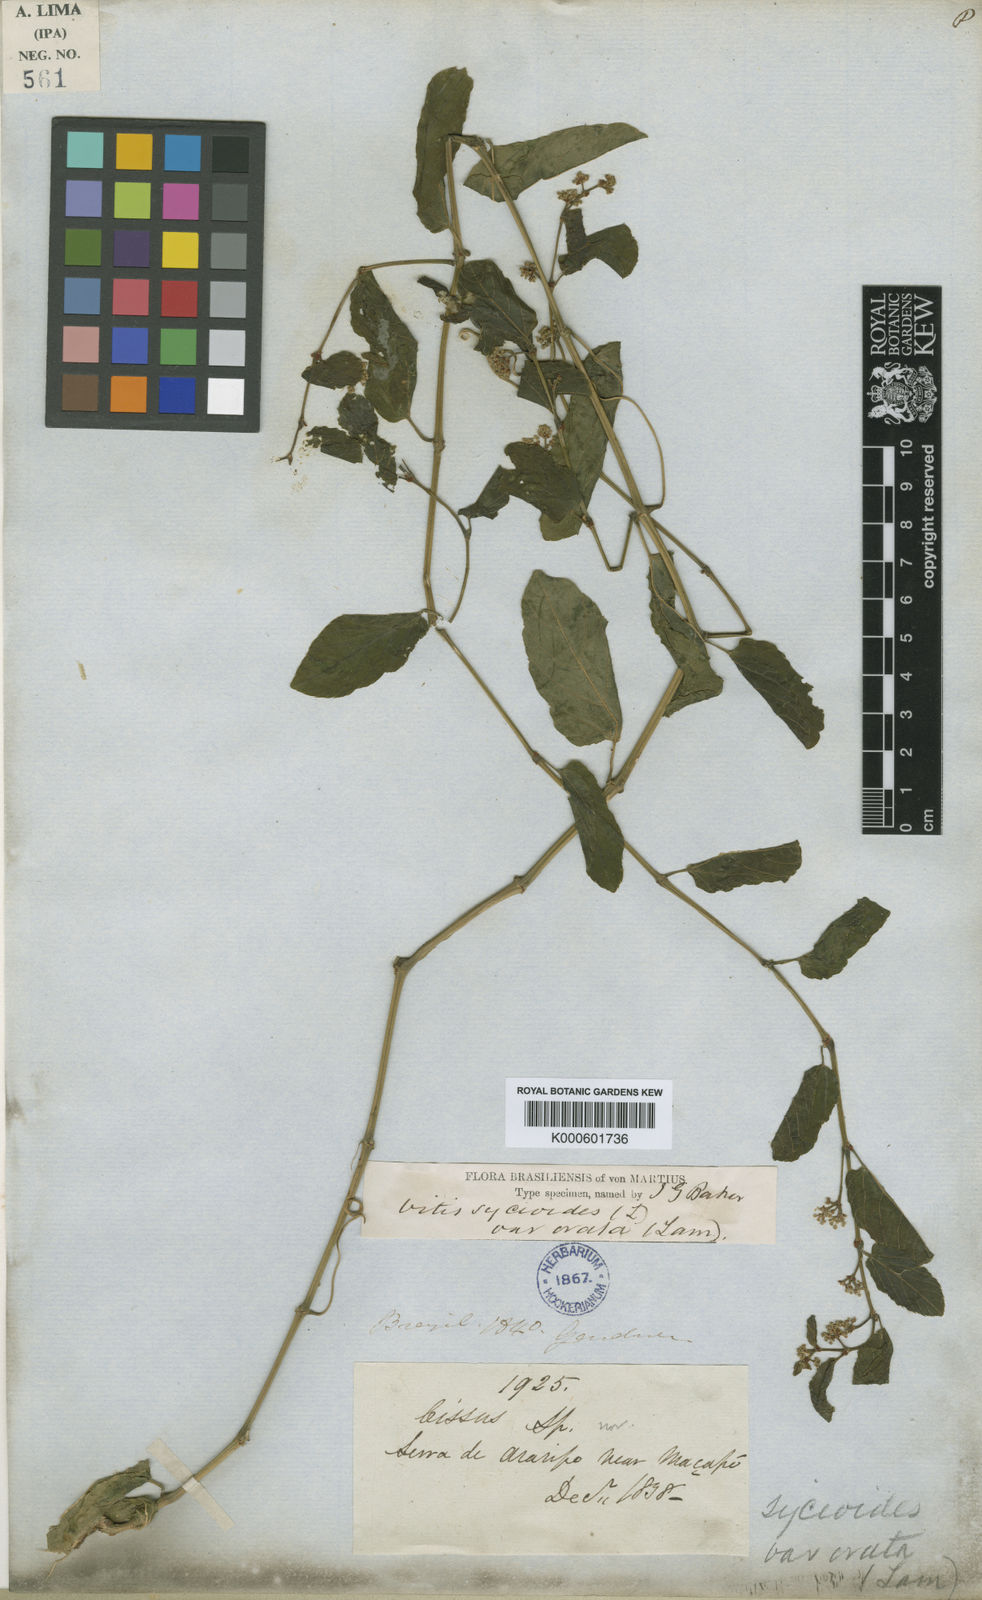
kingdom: Plantae
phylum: Tracheophyta
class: Magnoliopsida
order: Vitales
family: Vitaceae
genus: Cissus
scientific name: Cissus verticillata
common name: Princess vine
